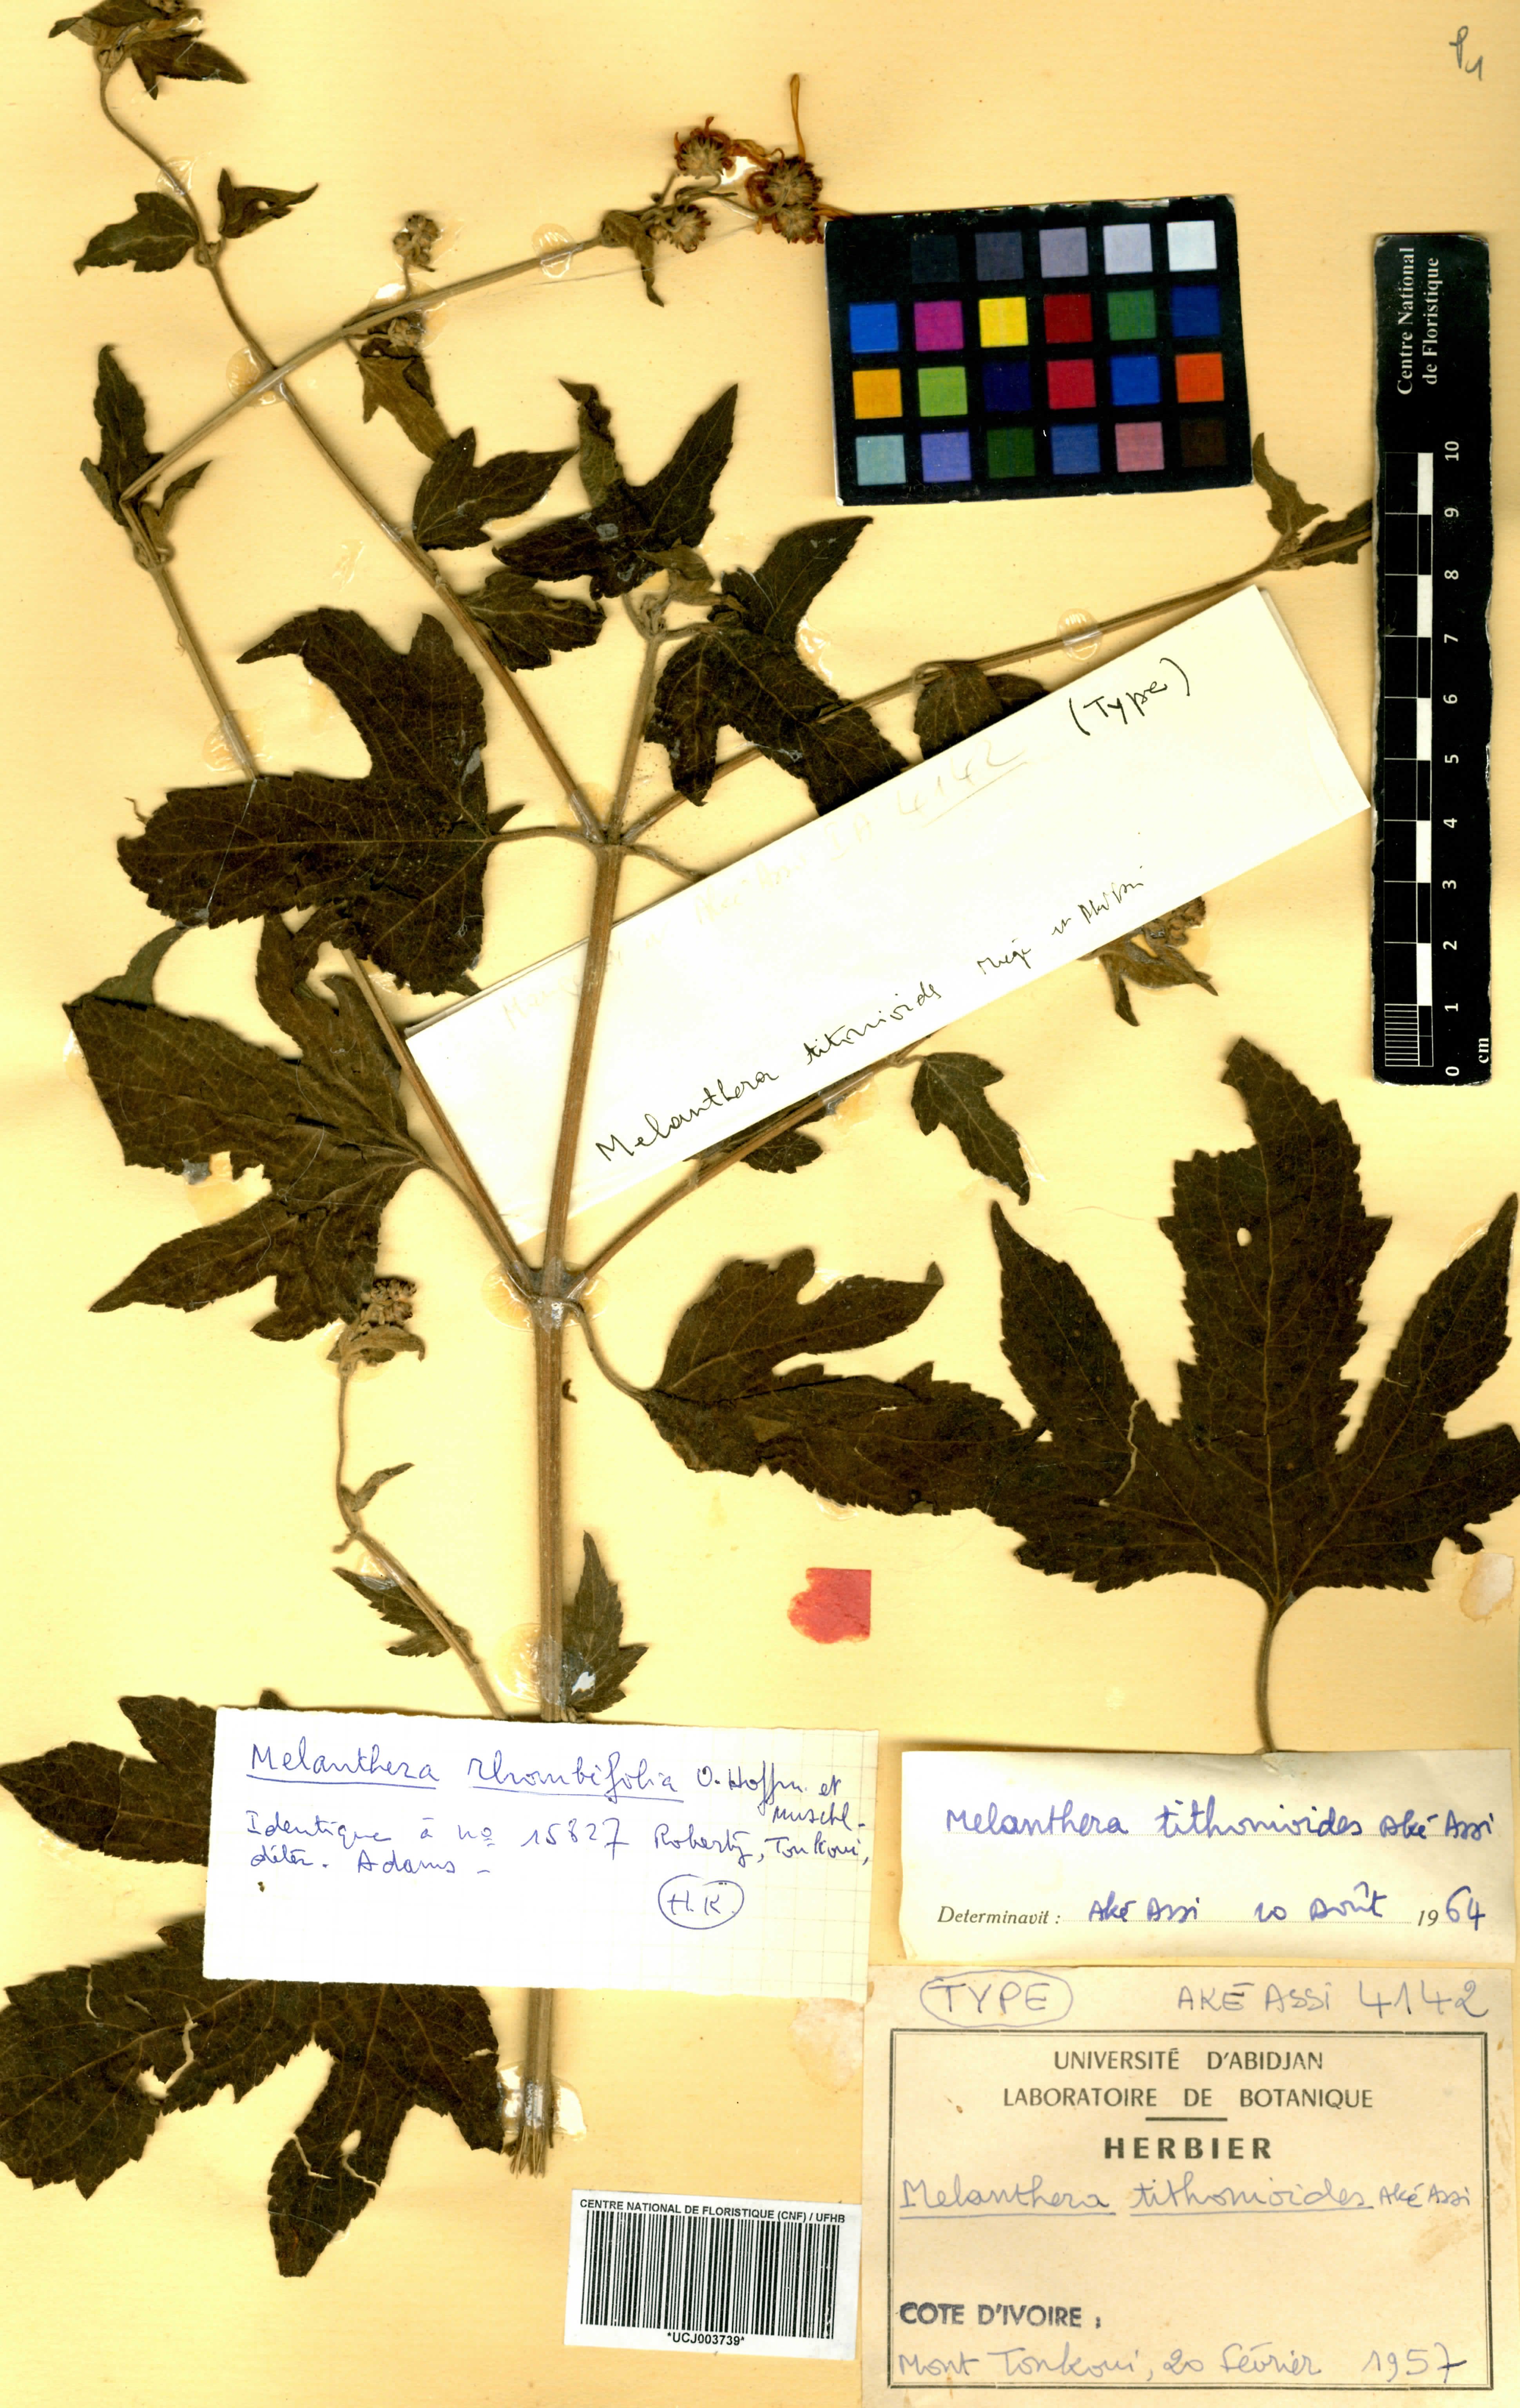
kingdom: Plantae
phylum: Tracheophyta
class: Magnoliopsida
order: Asterales
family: Asteraceae
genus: Lipotriche
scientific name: Lipotriche tithonioides
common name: Simandou daisy
